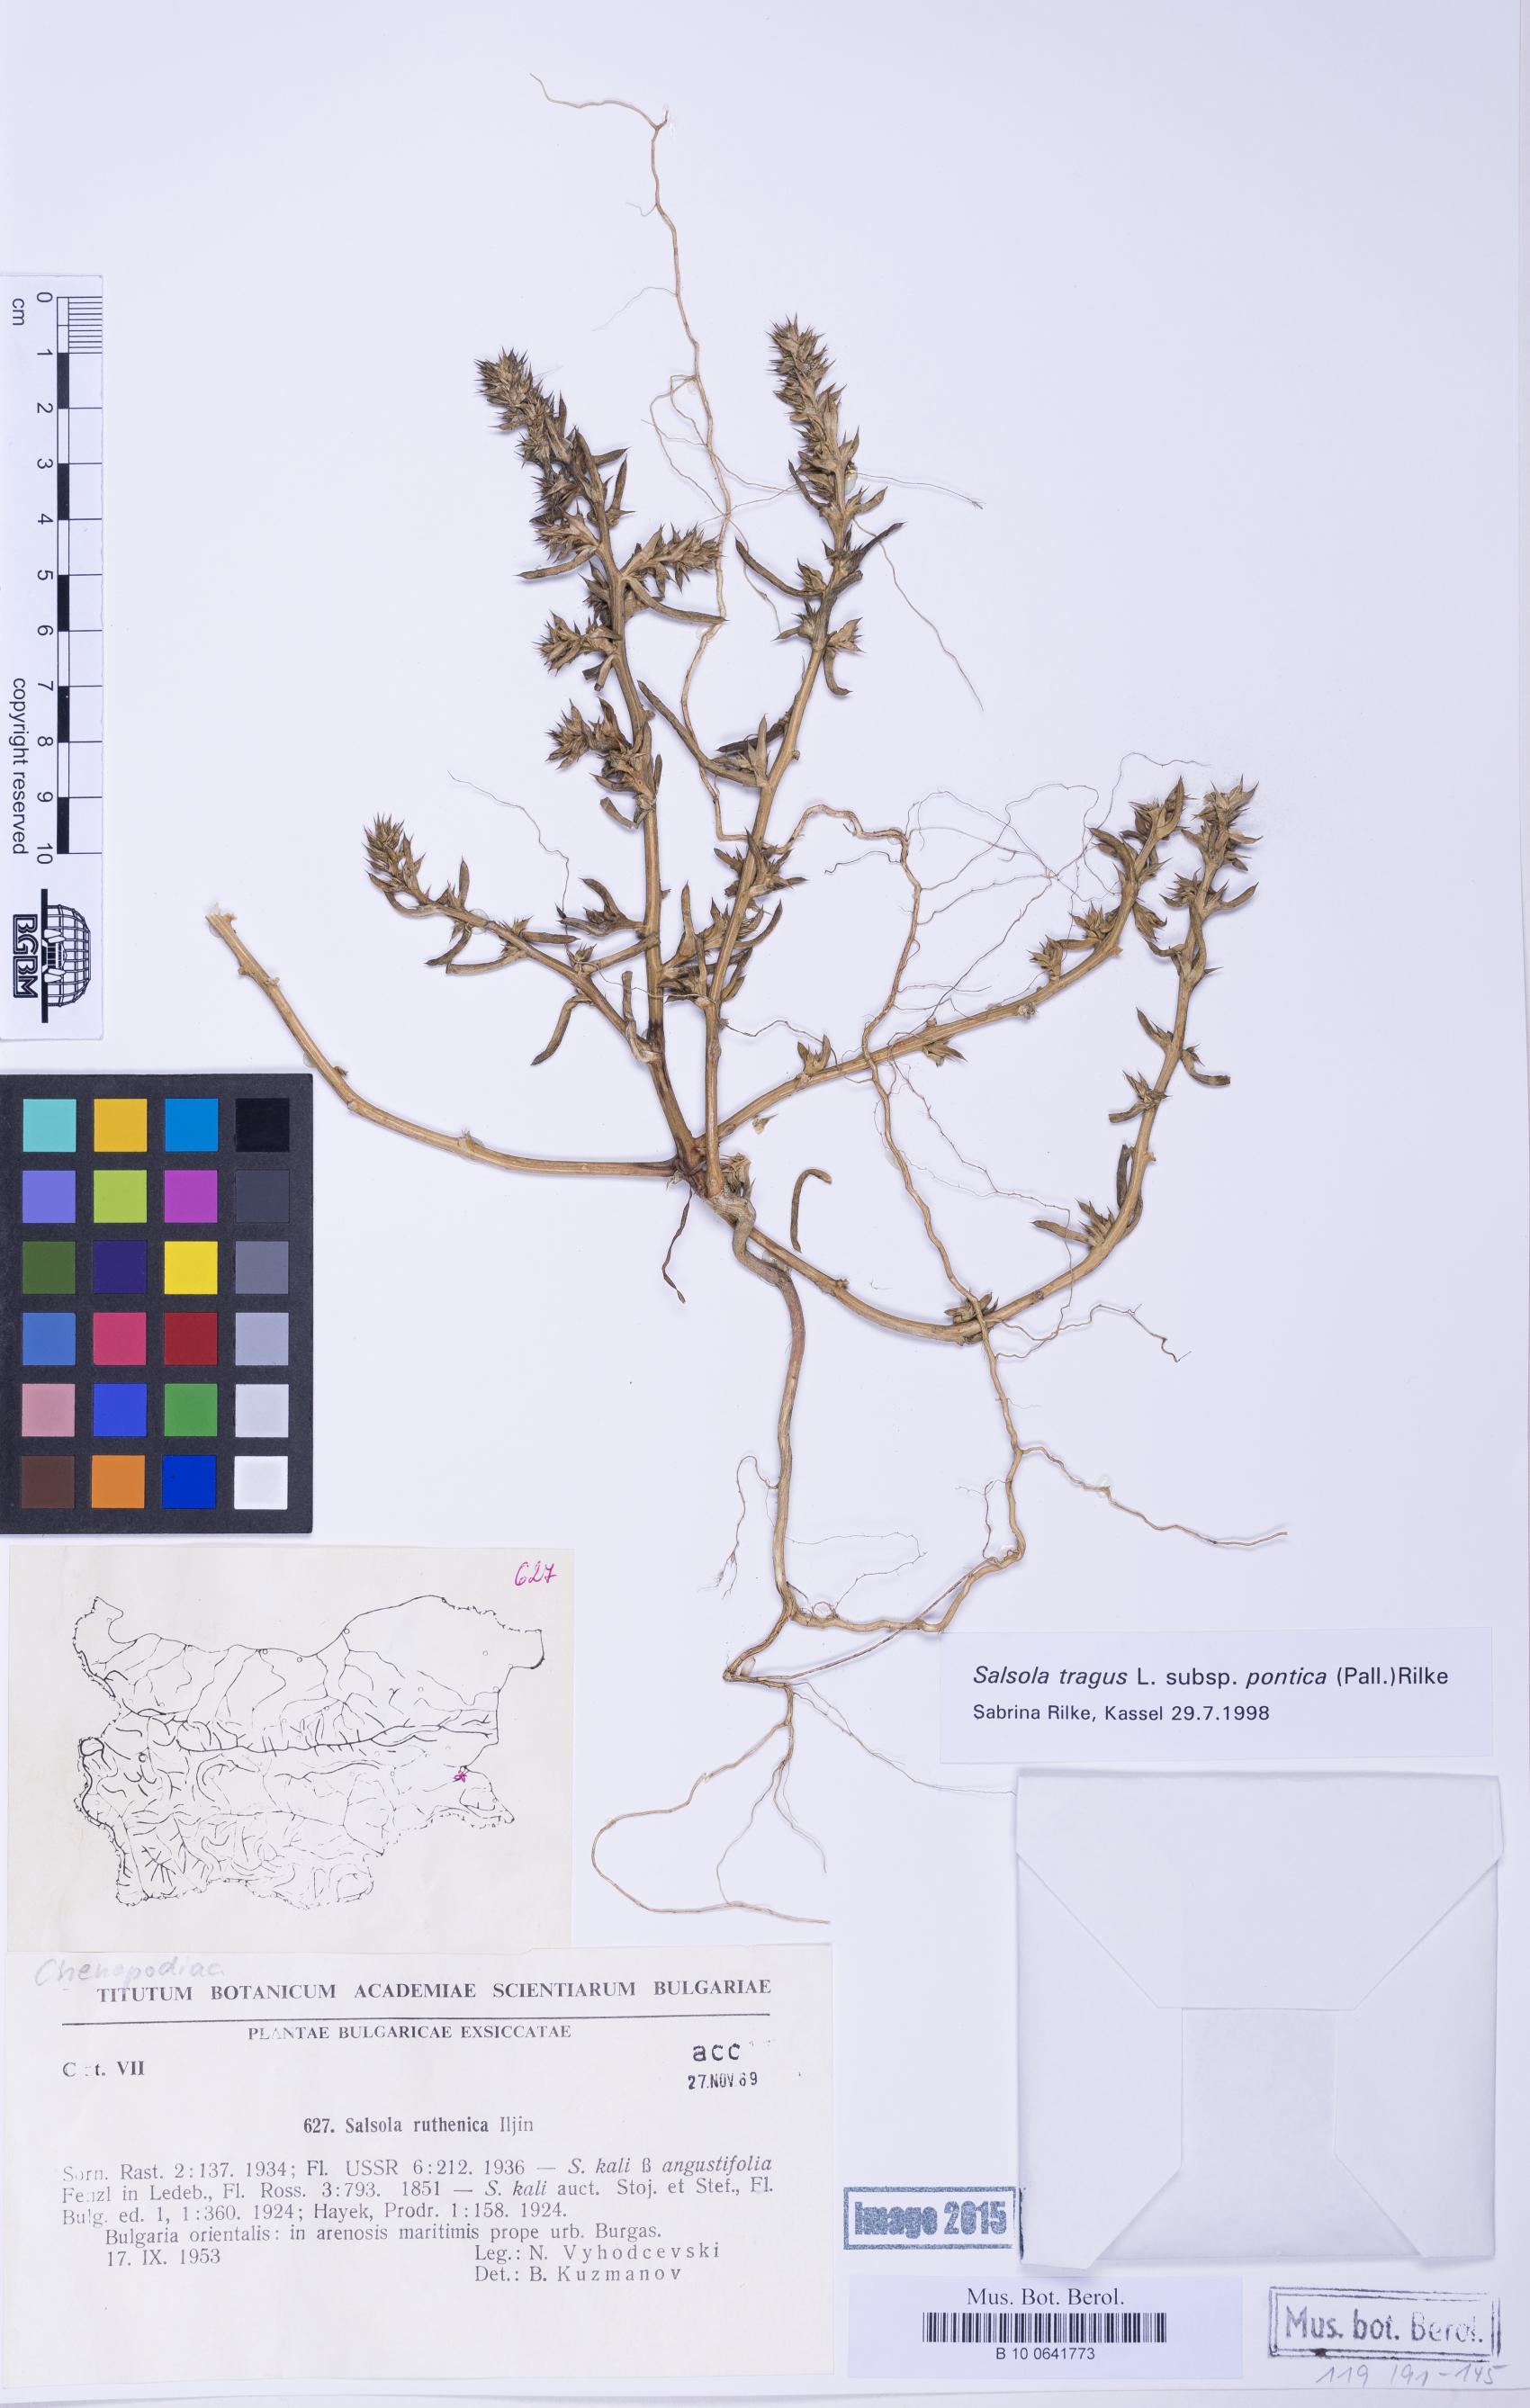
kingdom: Plantae
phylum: Tracheophyta
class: Magnoliopsida
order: Caryophyllales
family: Amaranthaceae
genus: Salsola
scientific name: Salsola squarrosa
